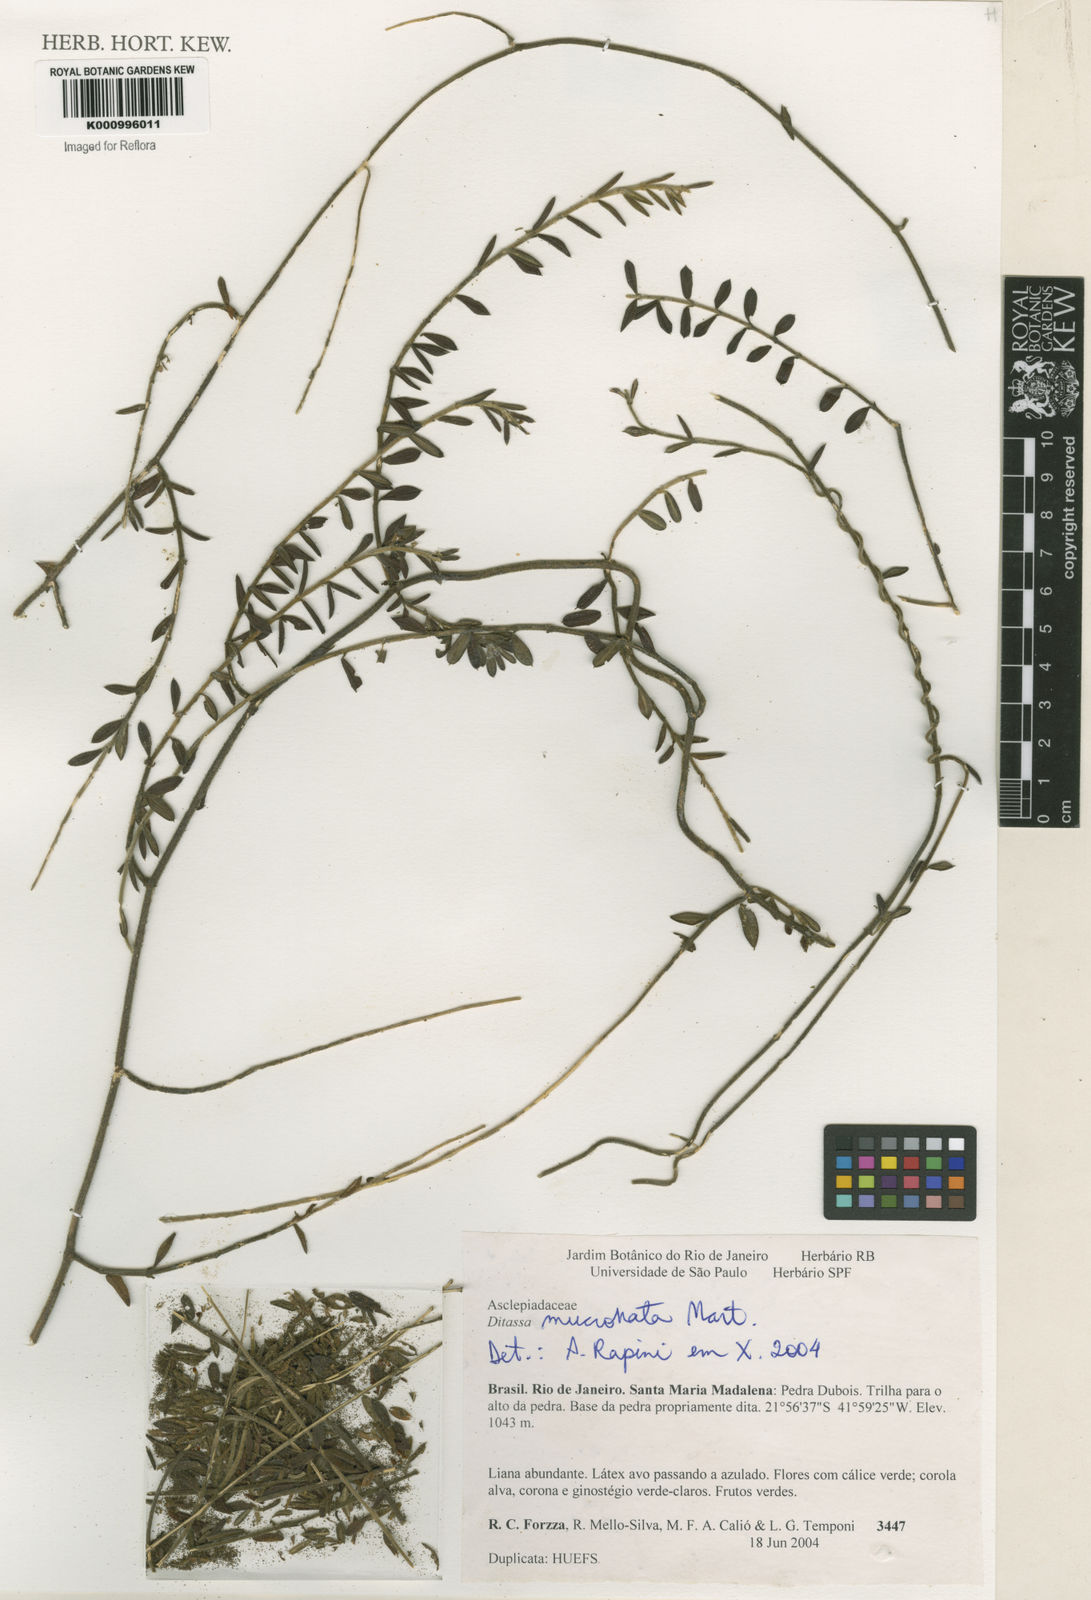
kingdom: Plantae
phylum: Tracheophyta
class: Magnoliopsida
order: Gentianales
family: Apocynaceae
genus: Ditassa
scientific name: Ditassa mucronata
